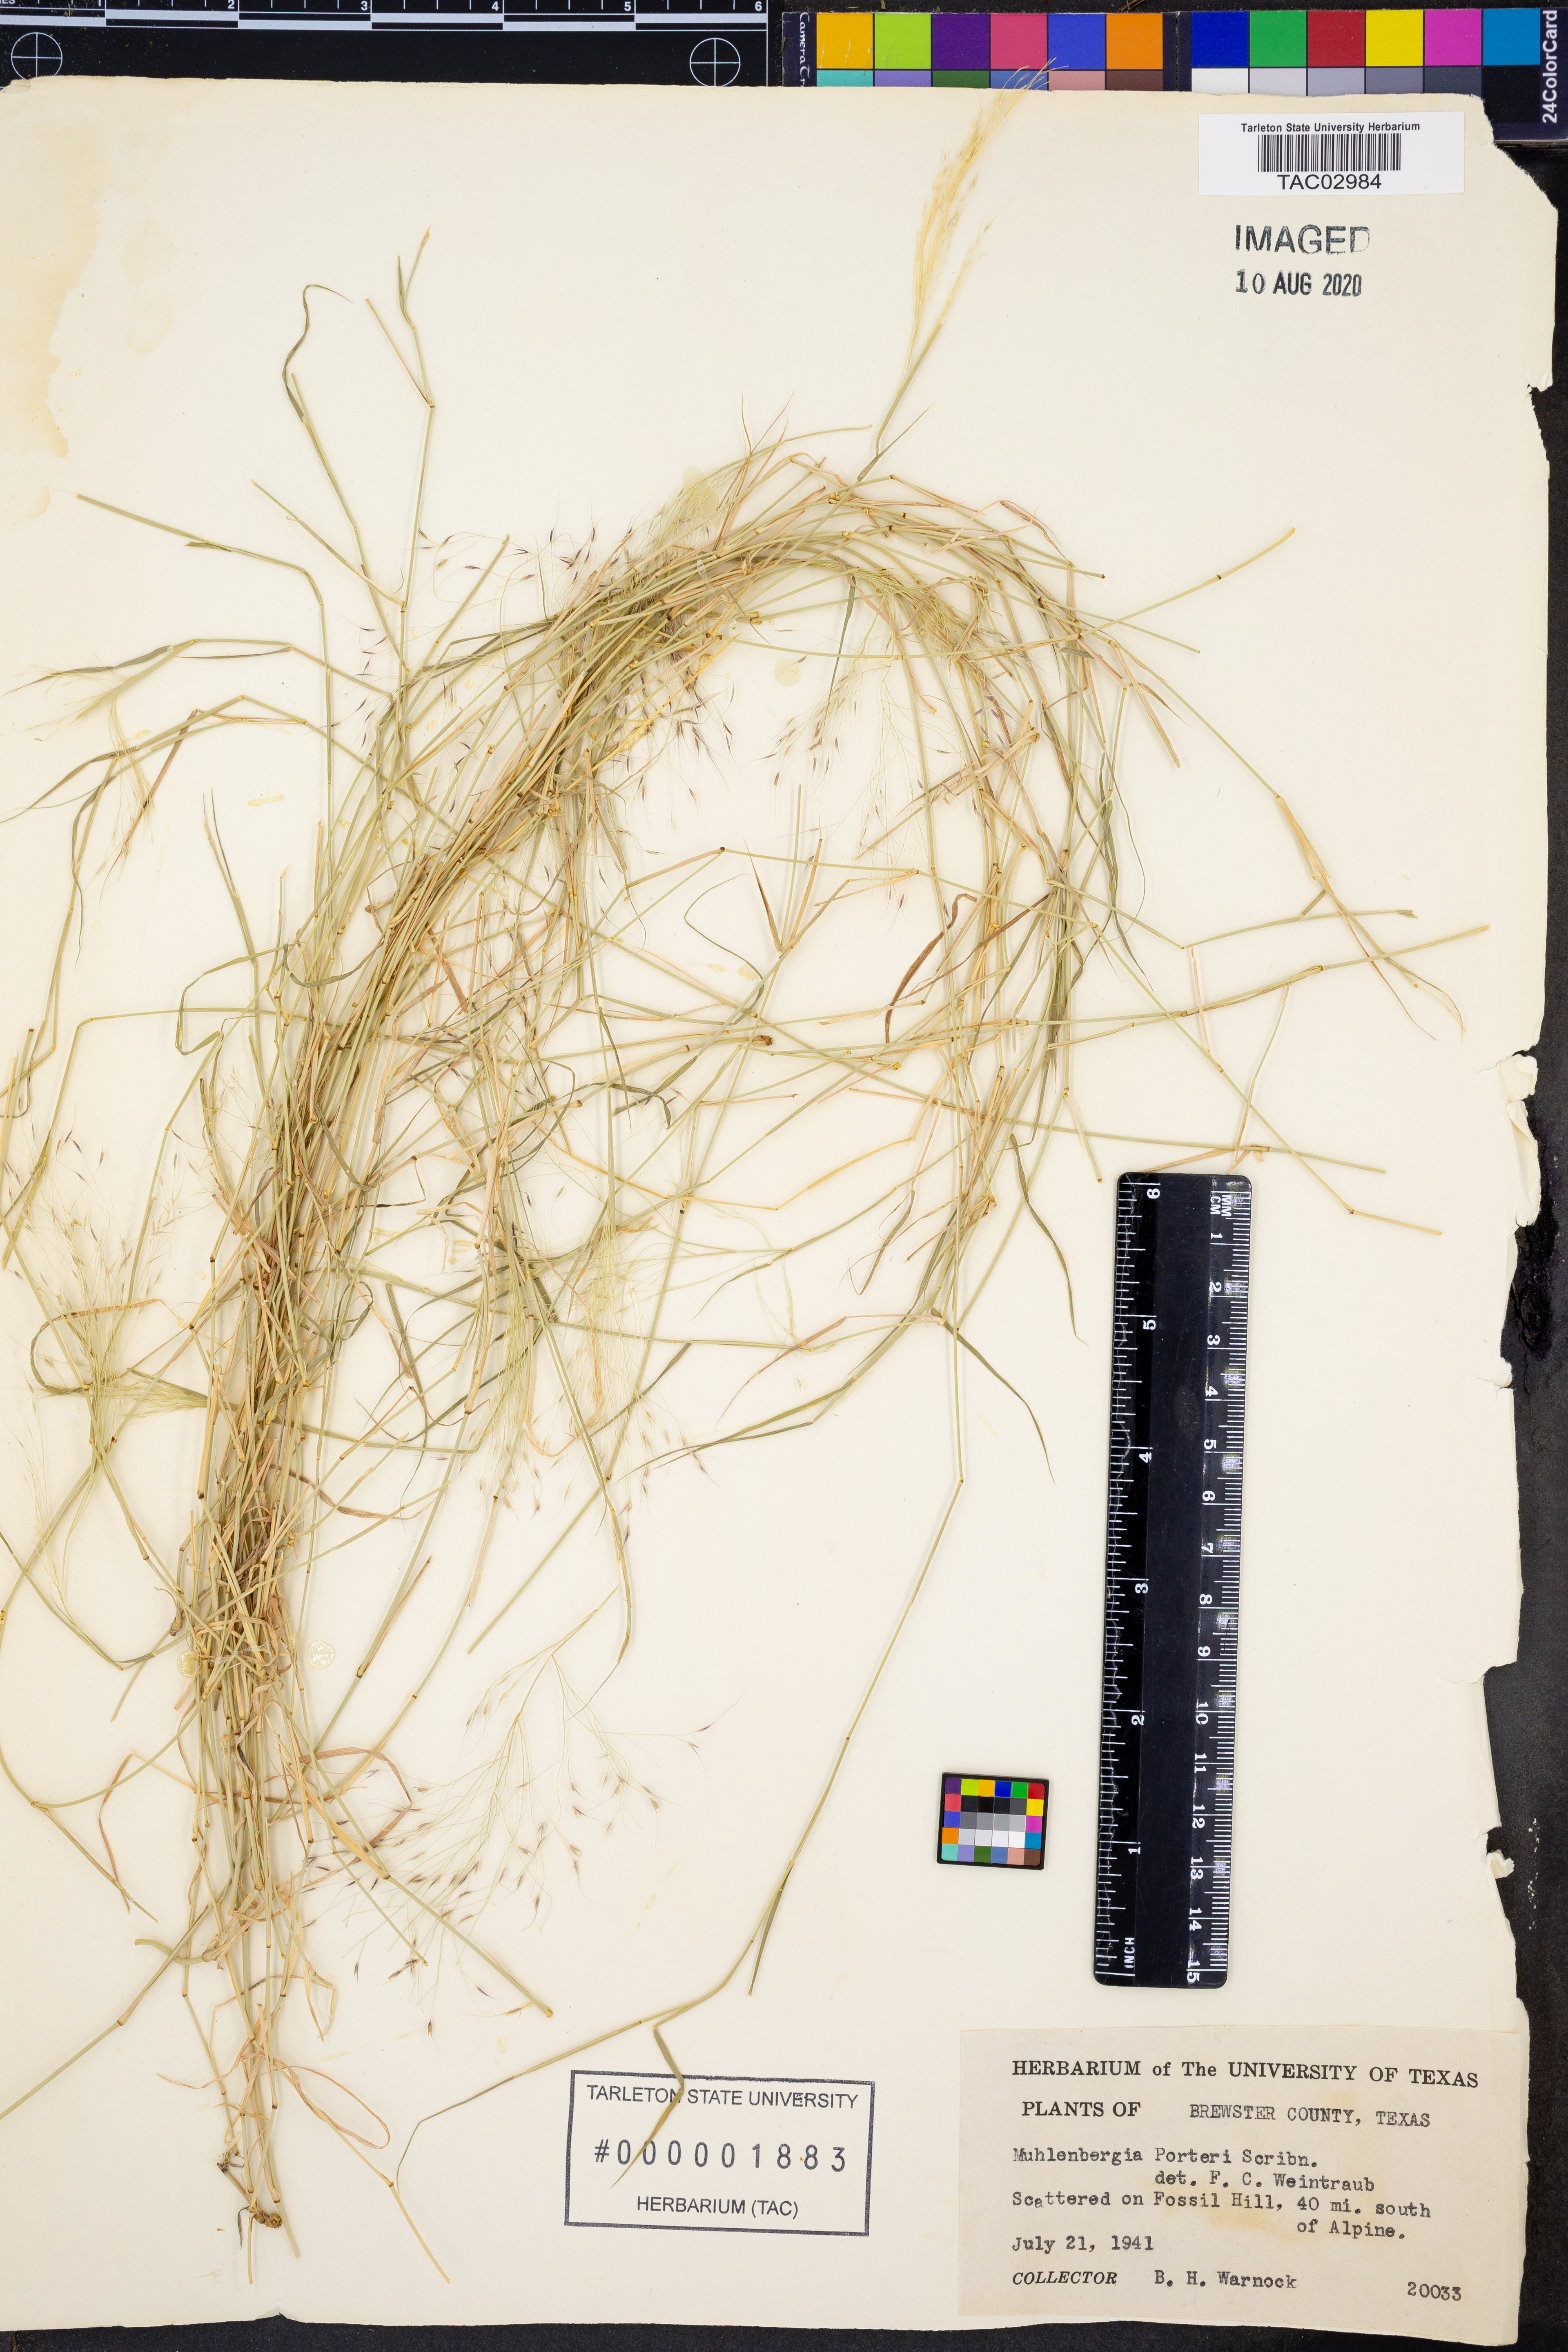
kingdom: Plantae
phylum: Tracheophyta
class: Liliopsida
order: Poales
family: Poaceae
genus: Muhlenbergia
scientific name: Muhlenbergia porteri
